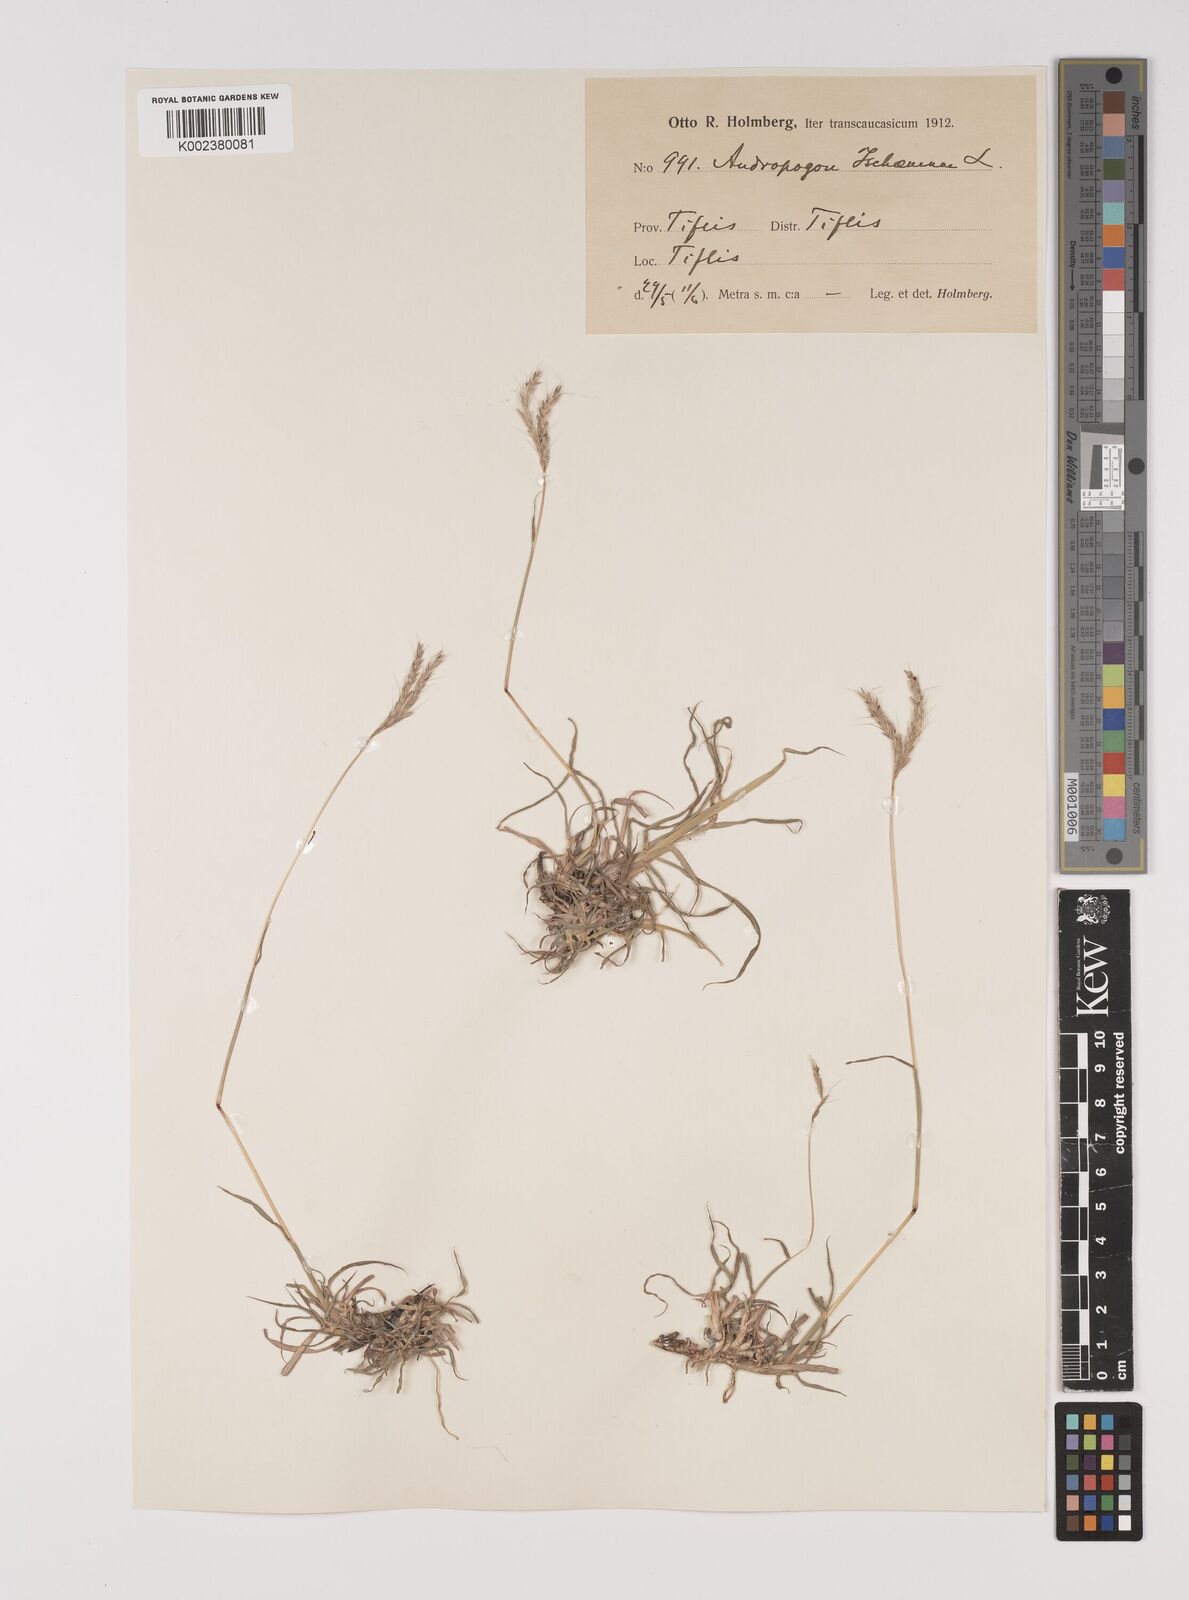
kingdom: Plantae
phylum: Tracheophyta
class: Liliopsida
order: Poales
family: Poaceae
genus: Bothriochloa
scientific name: Bothriochloa ischaemum
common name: Yellow bluestem
